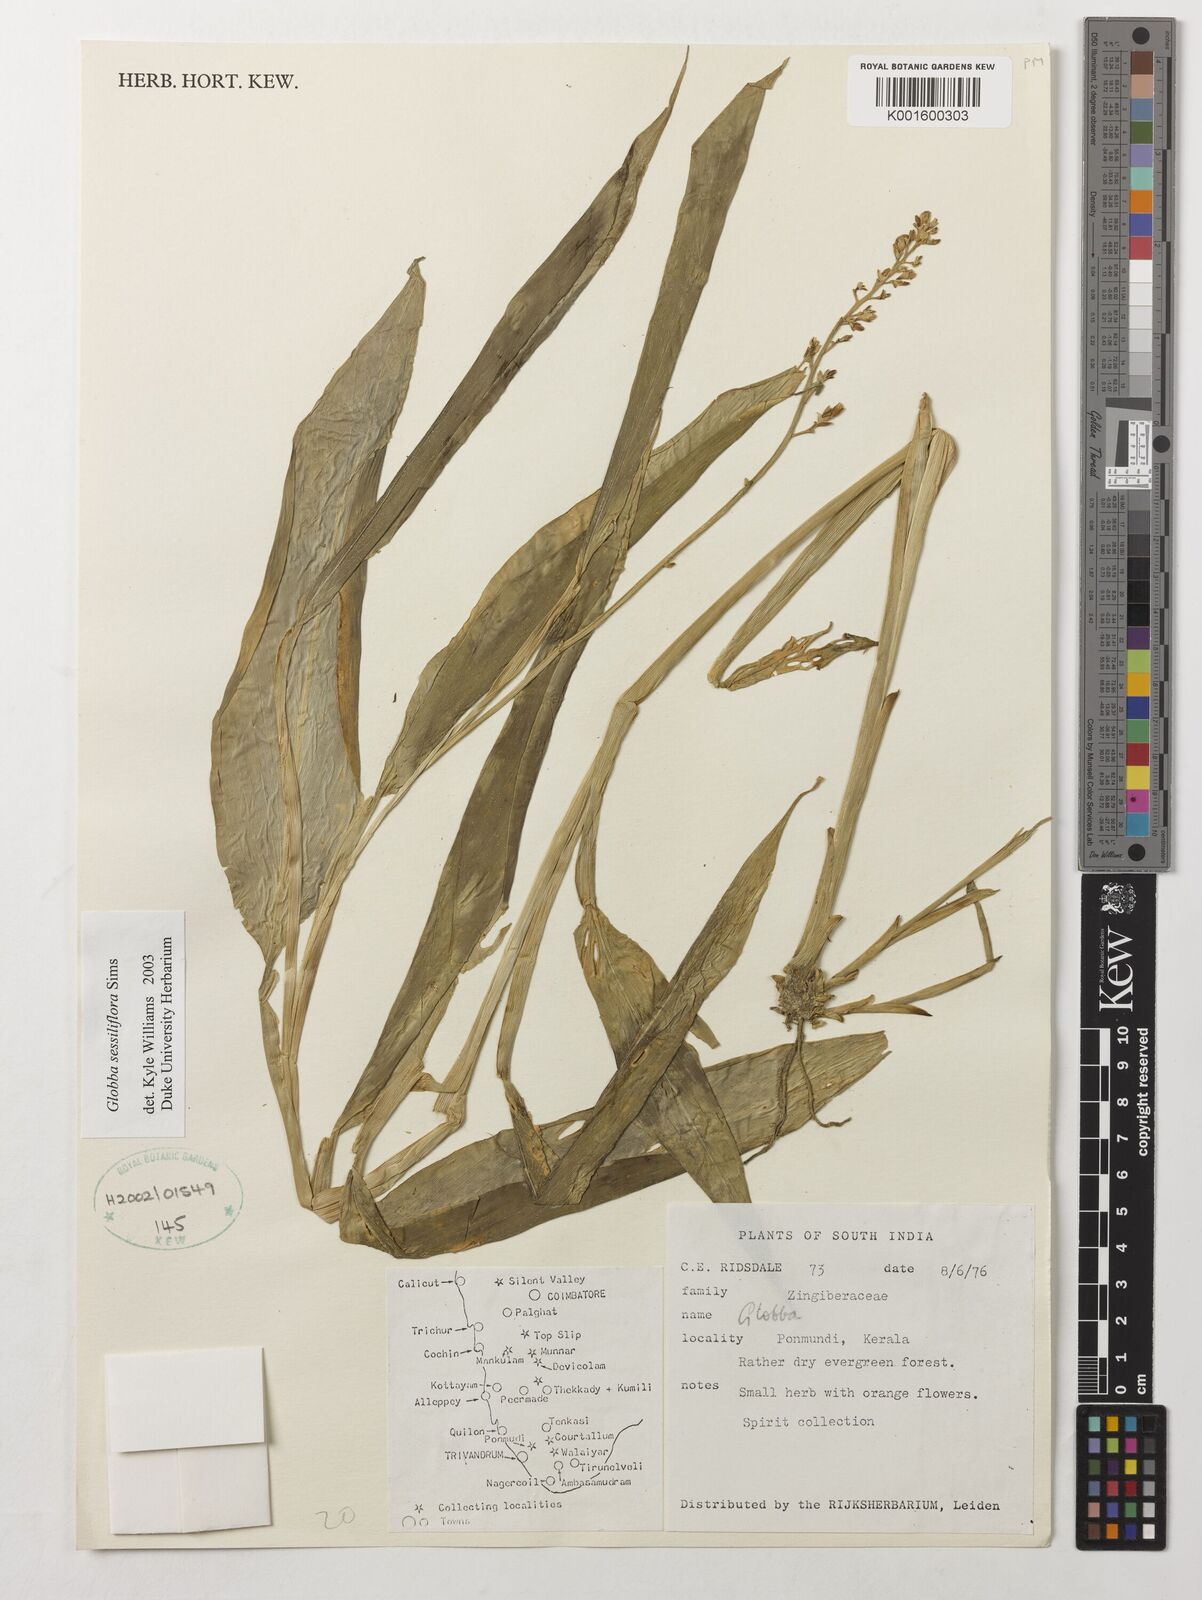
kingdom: Plantae
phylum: Tracheophyta
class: Liliopsida
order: Zingiberales
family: Zingiberaceae
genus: Globba
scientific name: Globba sessiliflora
